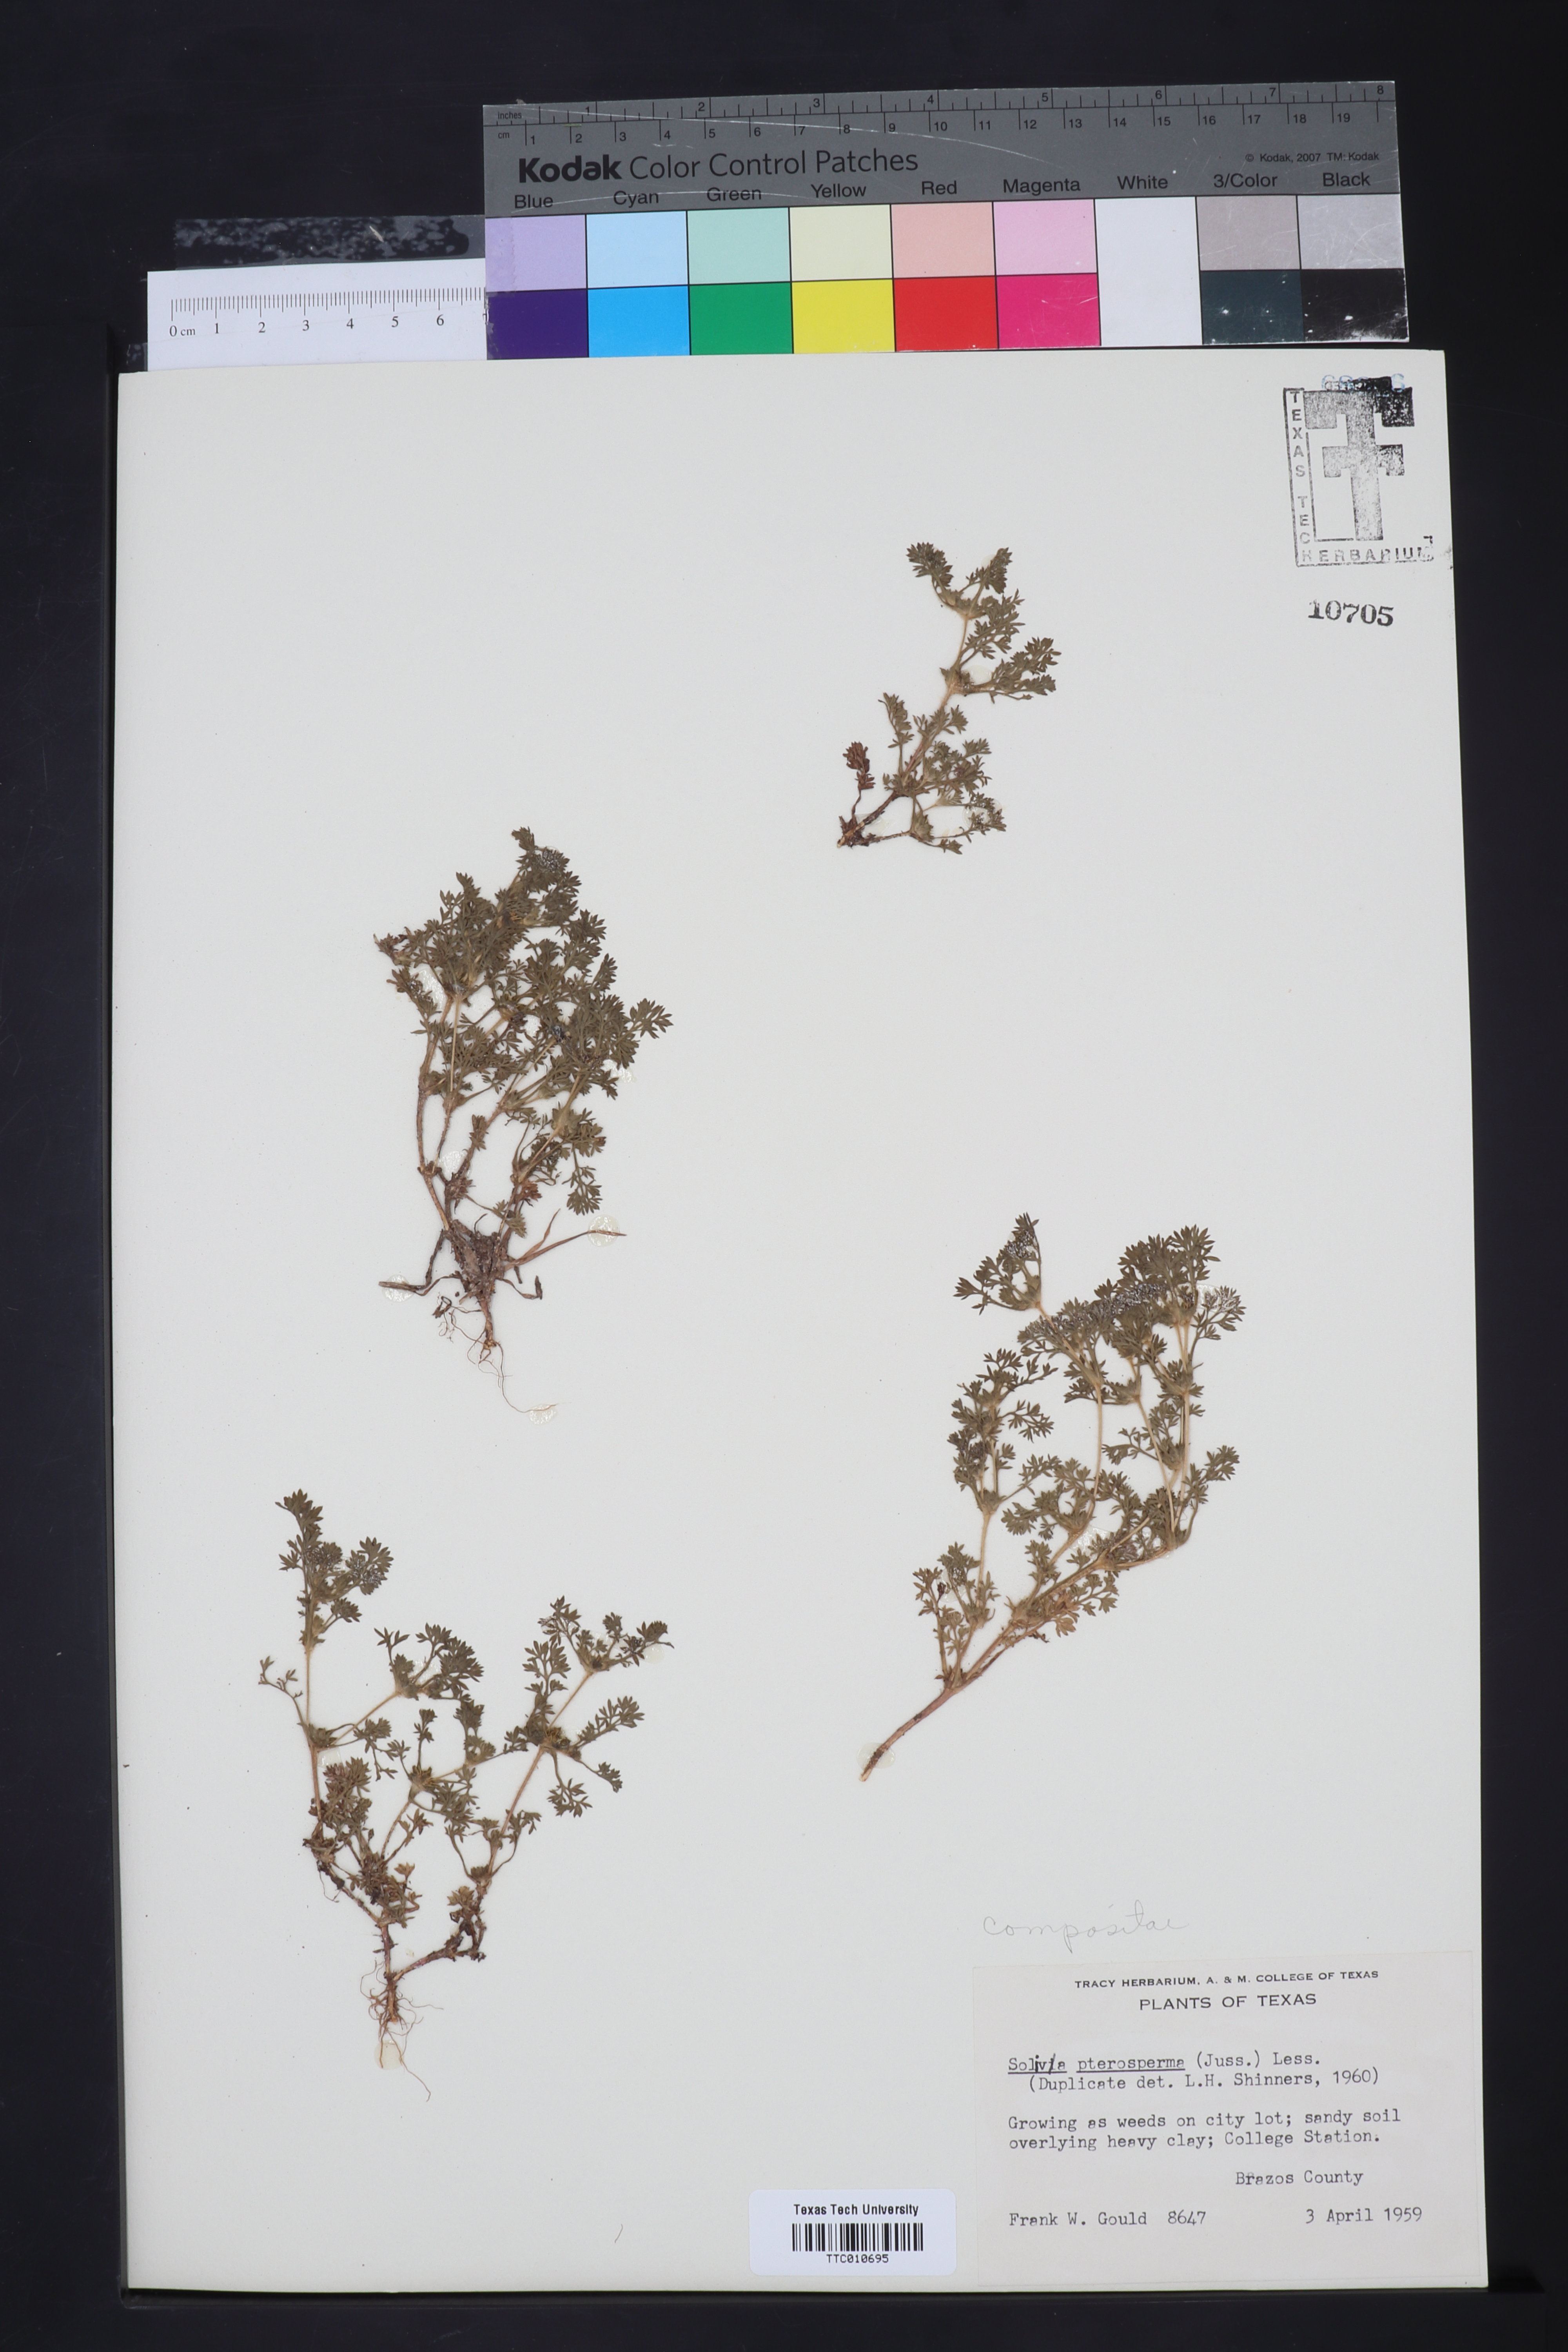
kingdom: Plantae
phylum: Tracheophyta
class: Magnoliopsida
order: Asterales
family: Asteraceae
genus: Soliva
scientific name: Soliva sessilis
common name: Field burrweed
